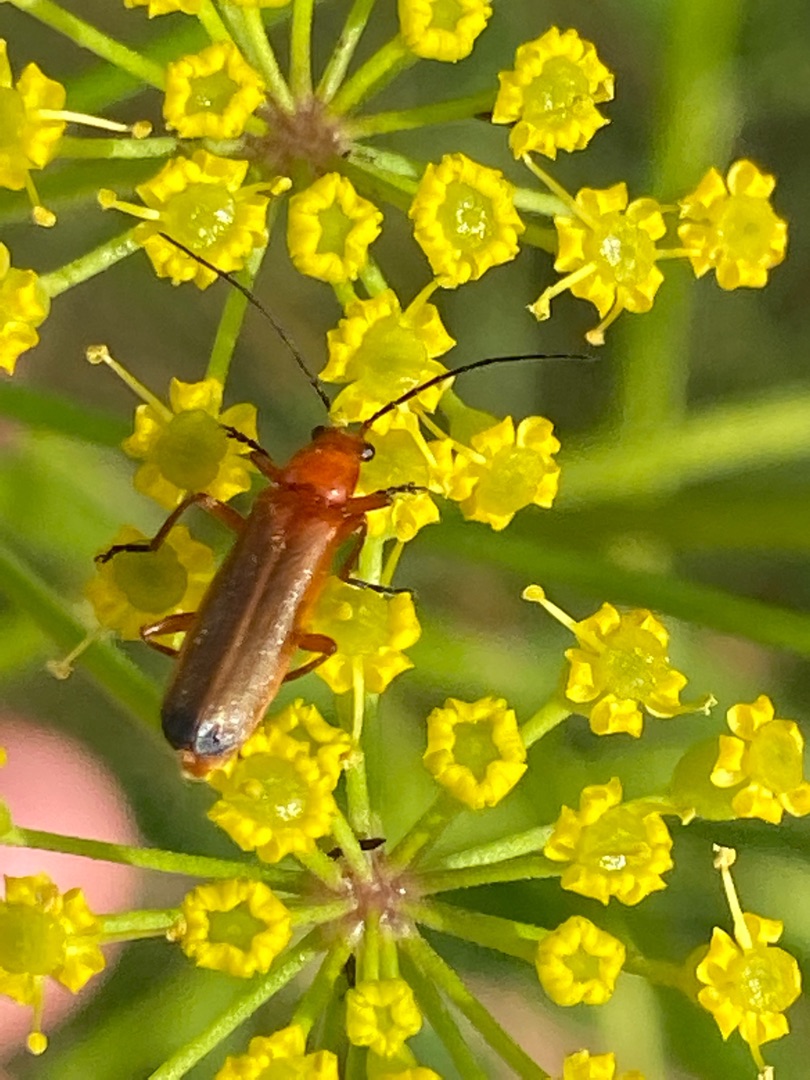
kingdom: Animalia
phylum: Arthropoda
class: Insecta
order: Coleoptera
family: Cantharidae
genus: Rhagonycha
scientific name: Rhagonycha fulva
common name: Præstebille
